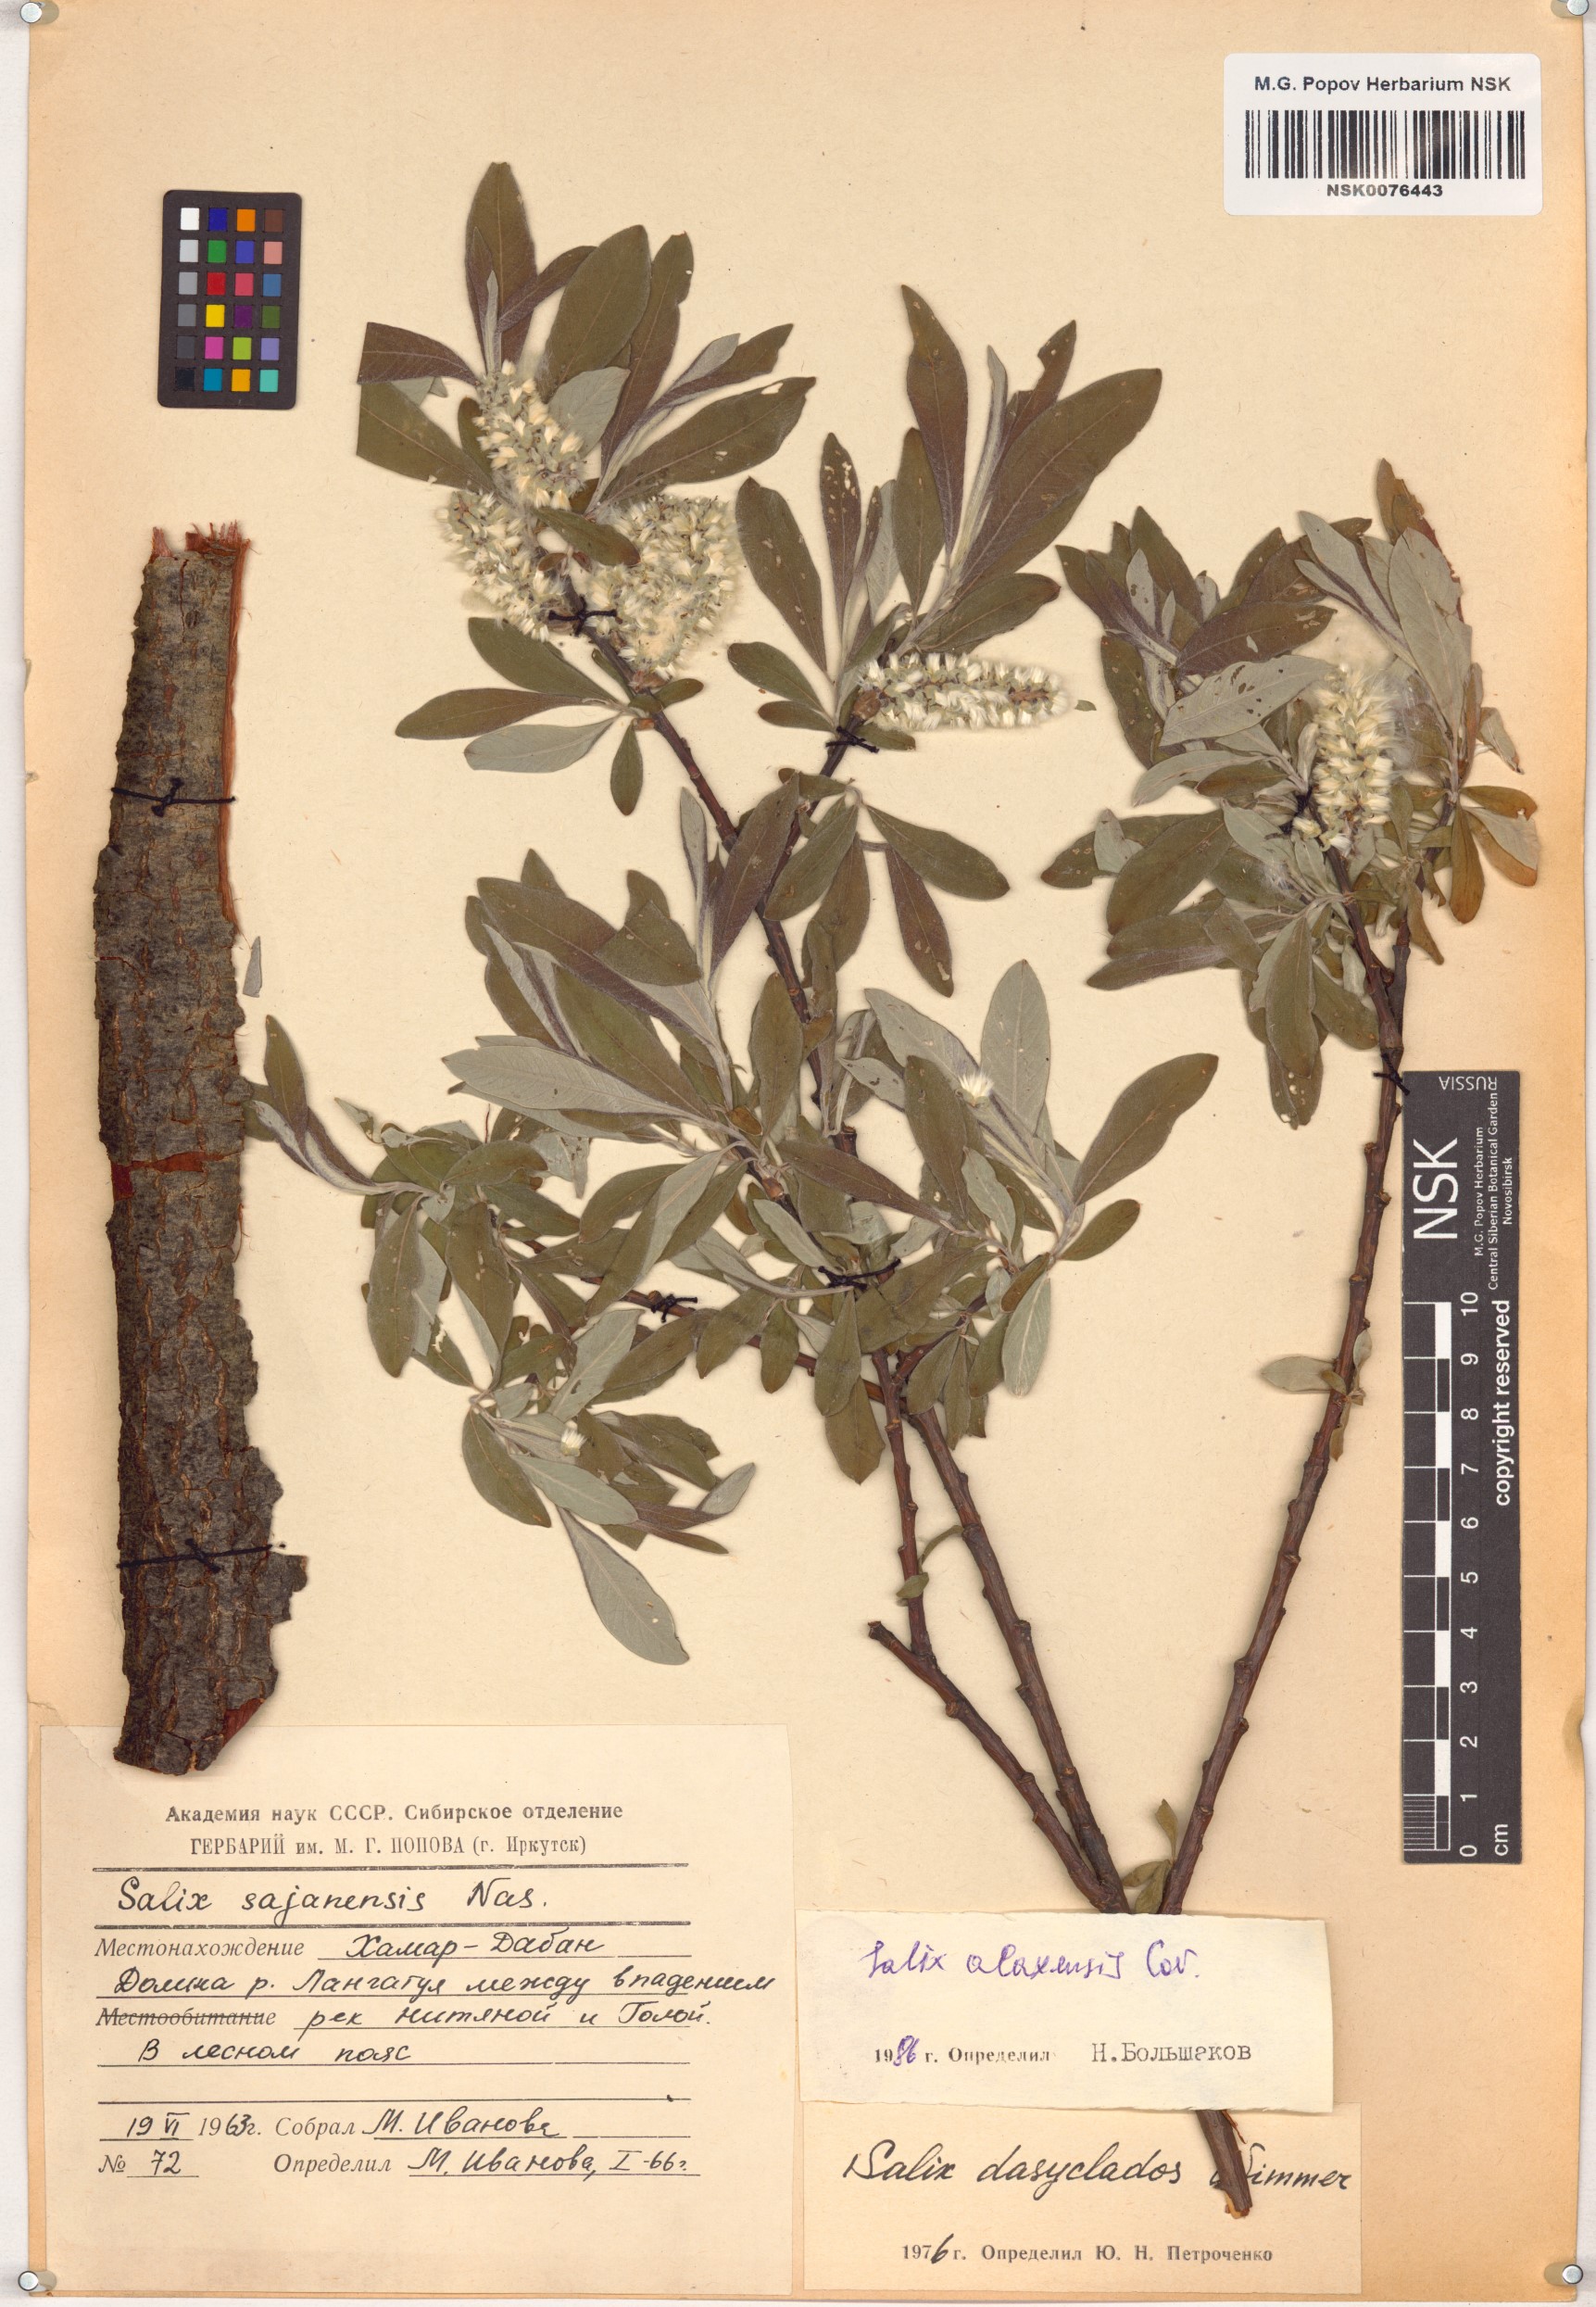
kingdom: Plantae
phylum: Tracheophyta
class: Magnoliopsida
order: Malpighiales
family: Salicaceae
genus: Salix
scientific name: Salix alaxensis
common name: Feltleaf willow
